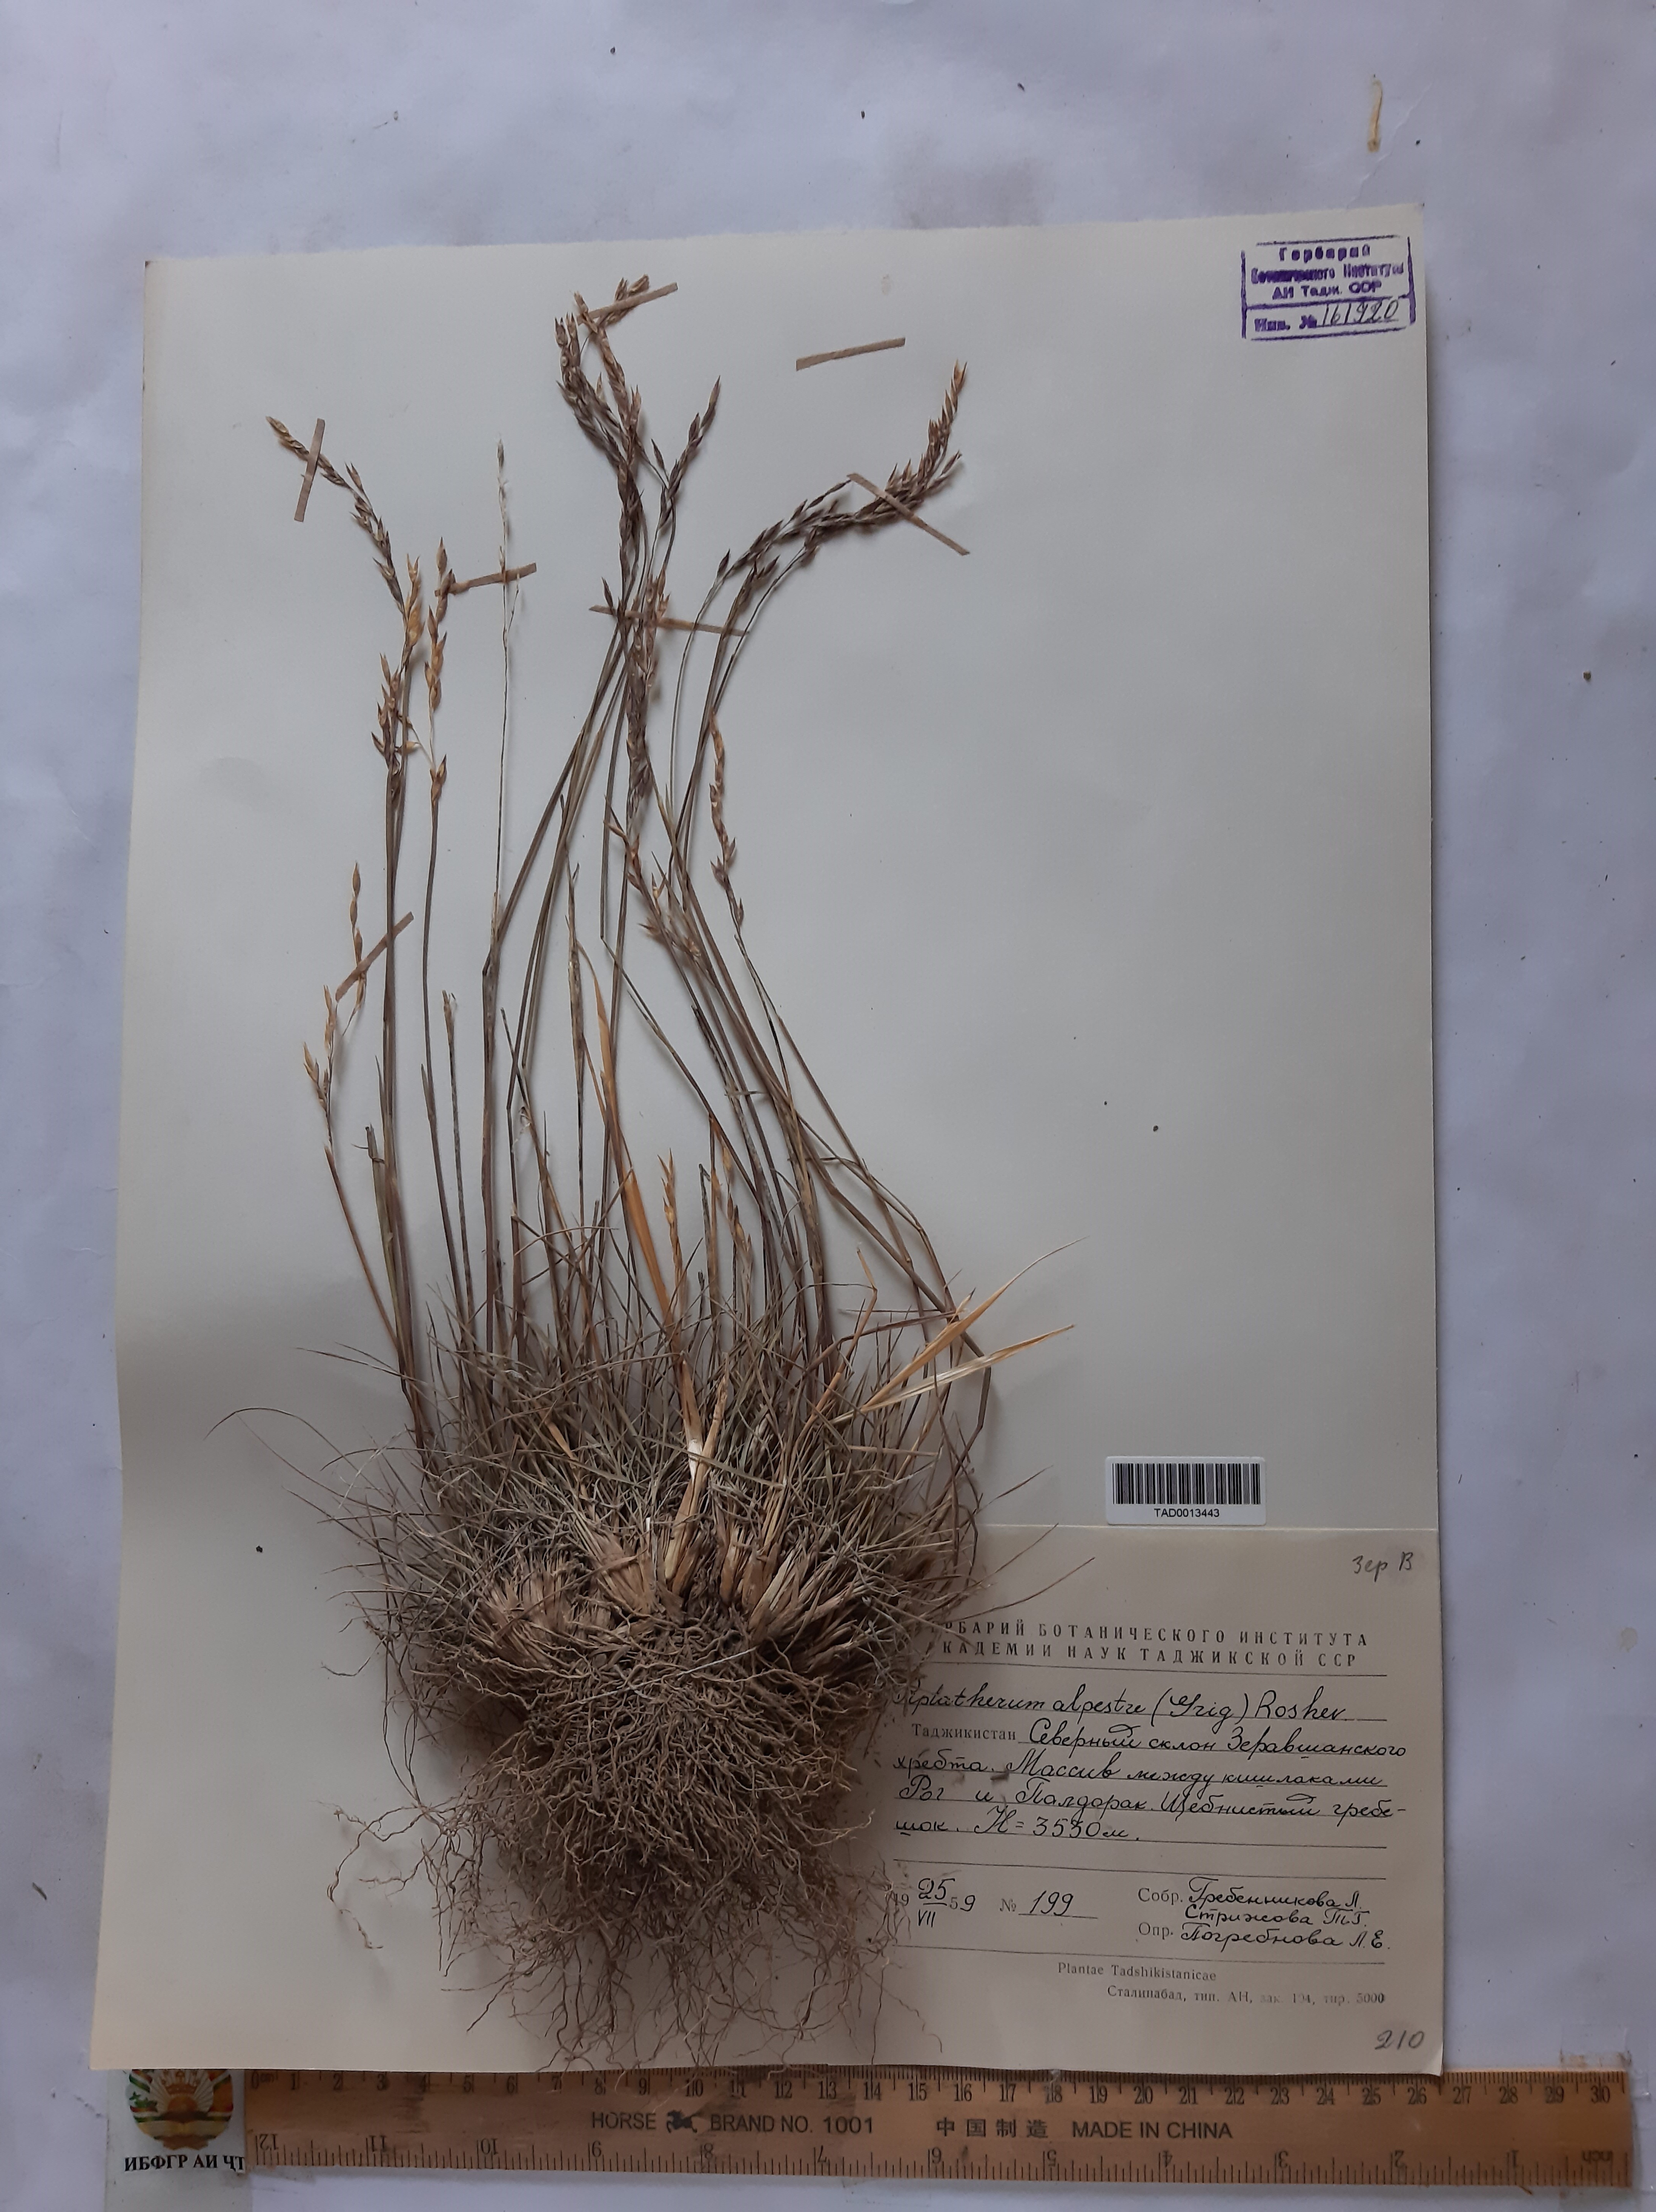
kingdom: Plantae
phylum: Tracheophyta
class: Liliopsida
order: Poales
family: Poaceae
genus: Piptatherum
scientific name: Piptatherum alpestre
